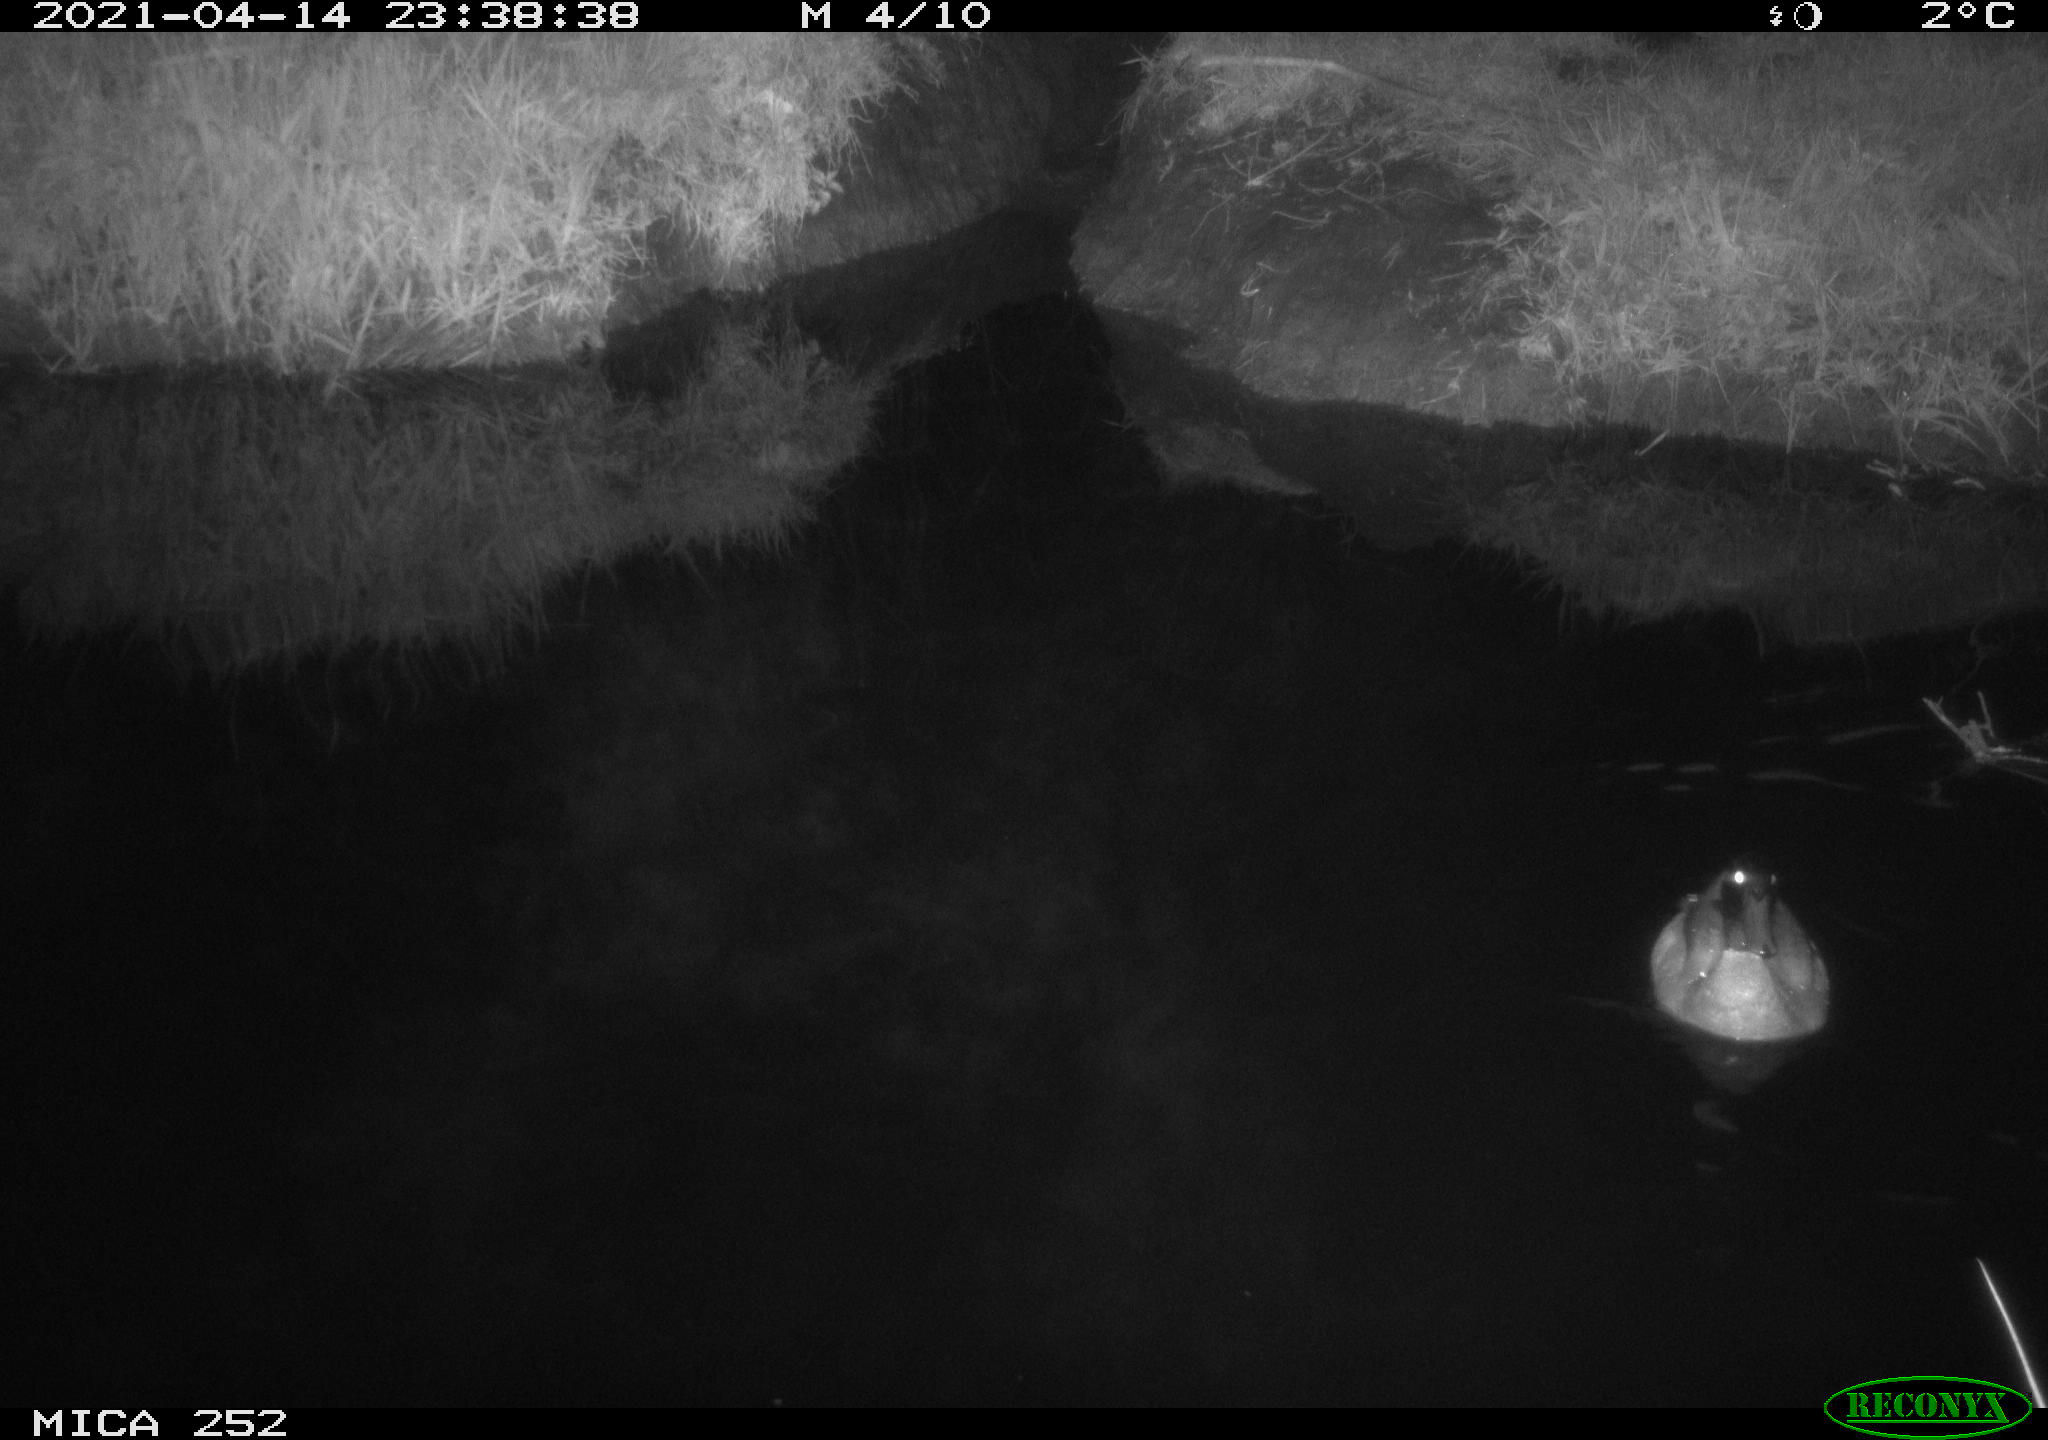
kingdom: Animalia
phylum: Chordata
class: Aves
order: Anseriformes
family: Anatidae
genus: Anas
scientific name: Anas platyrhynchos
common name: Mallard
